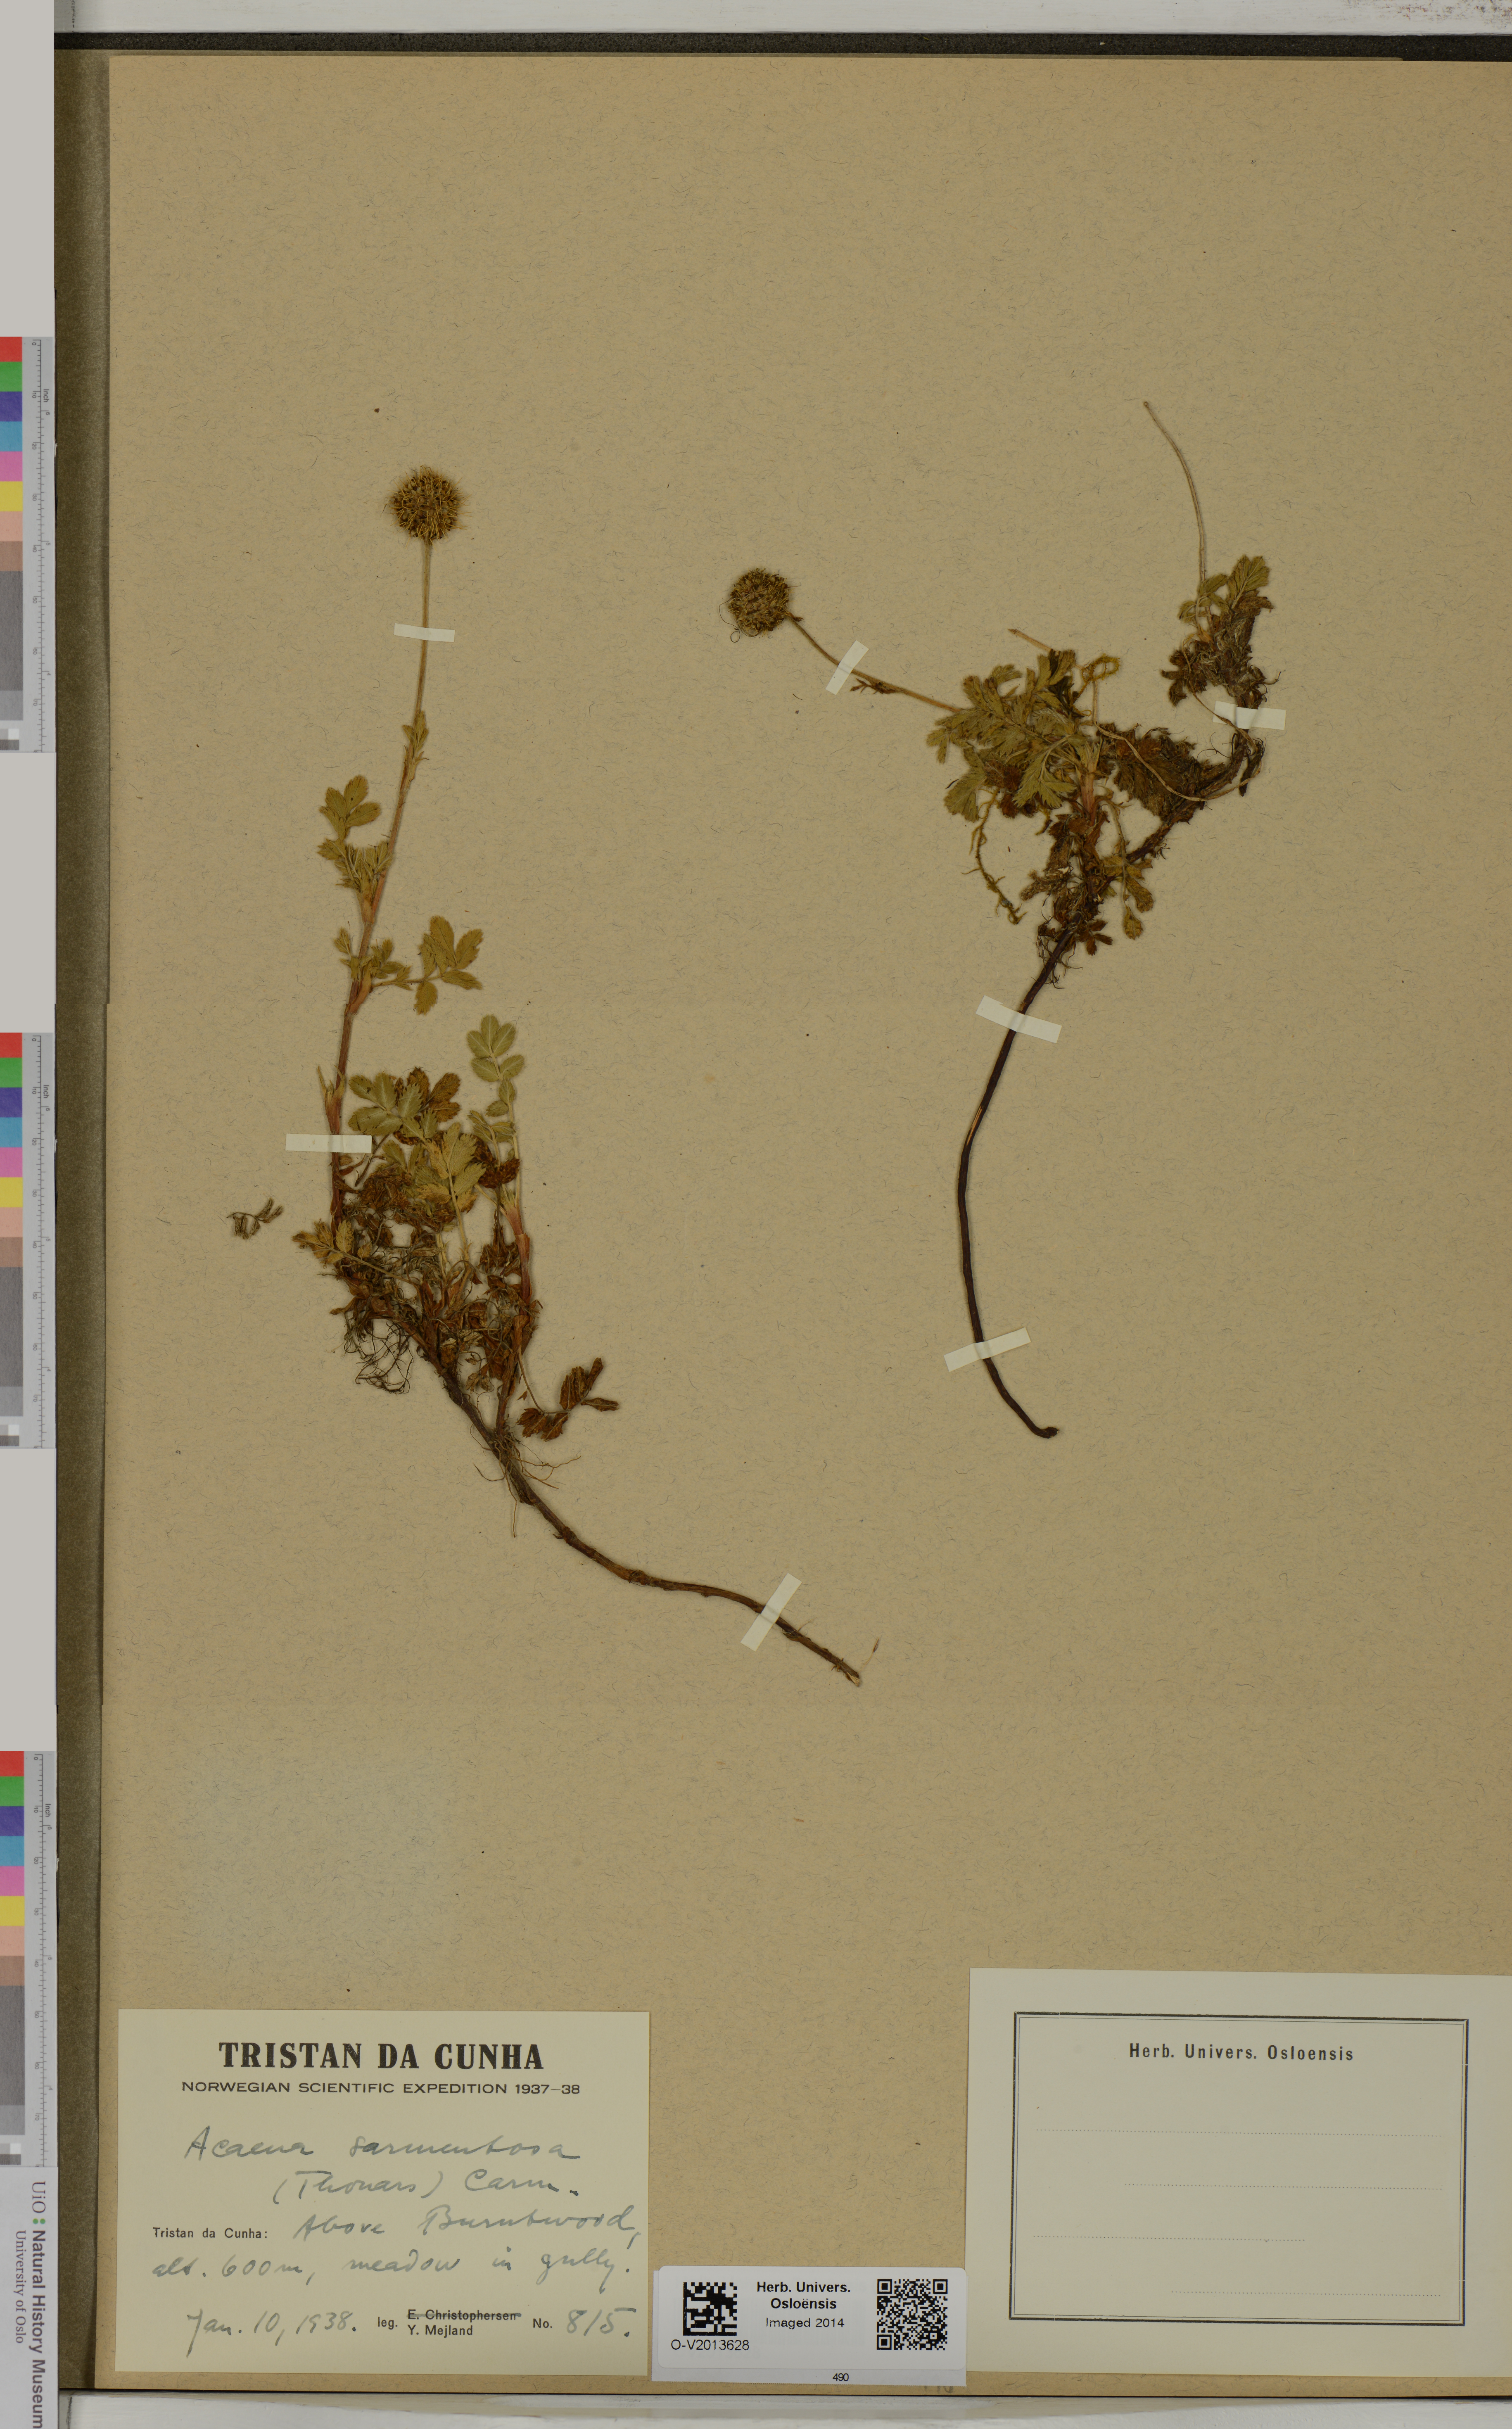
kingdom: Plantae
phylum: Tracheophyta
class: Magnoliopsida
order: Rosales
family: Rosaceae
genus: Acaena
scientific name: Acaena sarmentosa
